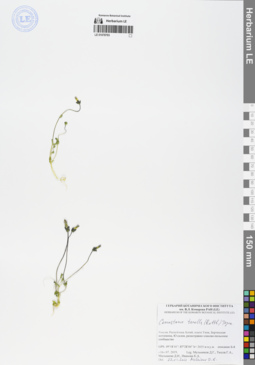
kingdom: Plantae
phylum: Tracheophyta
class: Magnoliopsida
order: Gentianales
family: Gentianaceae
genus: Comastoma
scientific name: Comastoma tenellum
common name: Dane's dwarf gentian
